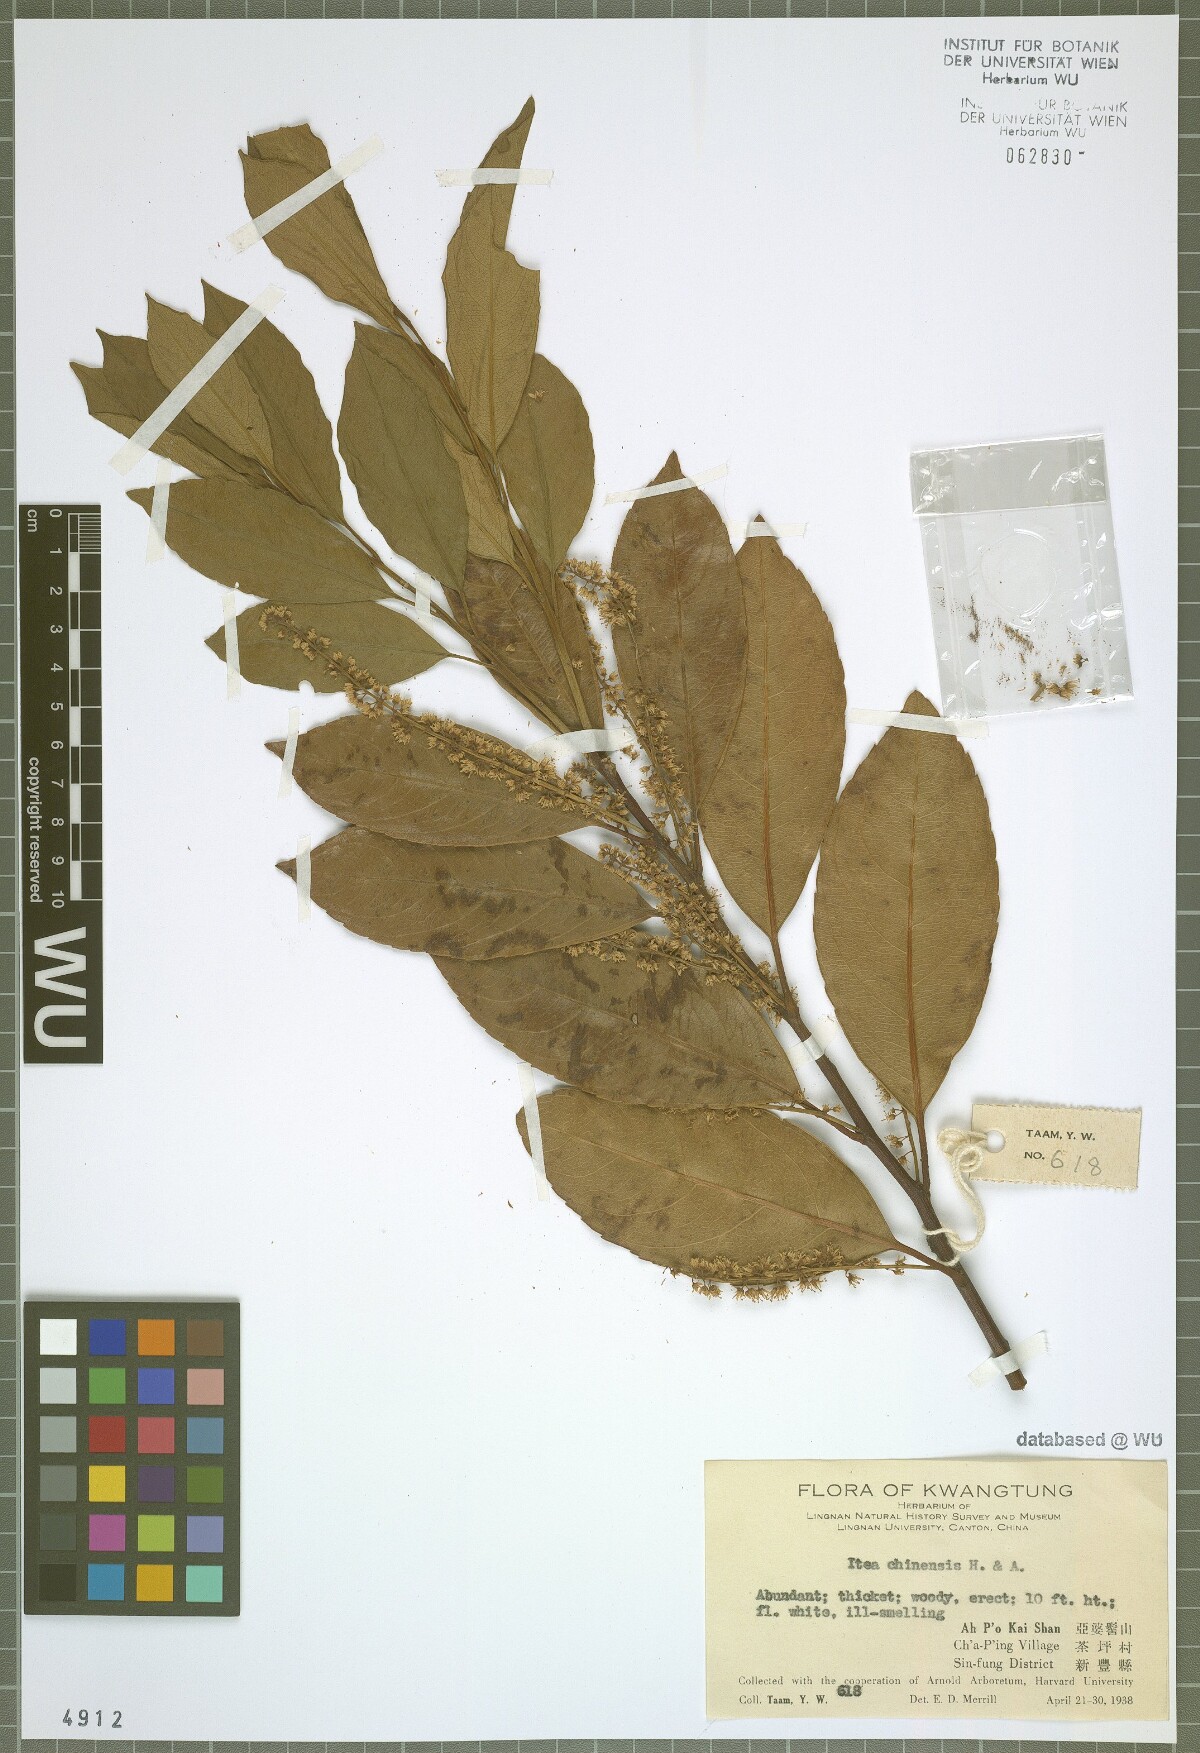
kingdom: Plantae
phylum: Tracheophyta
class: Magnoliopsida
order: Saxifragales
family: Iteaceae
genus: Itea
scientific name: Itea chinensis
